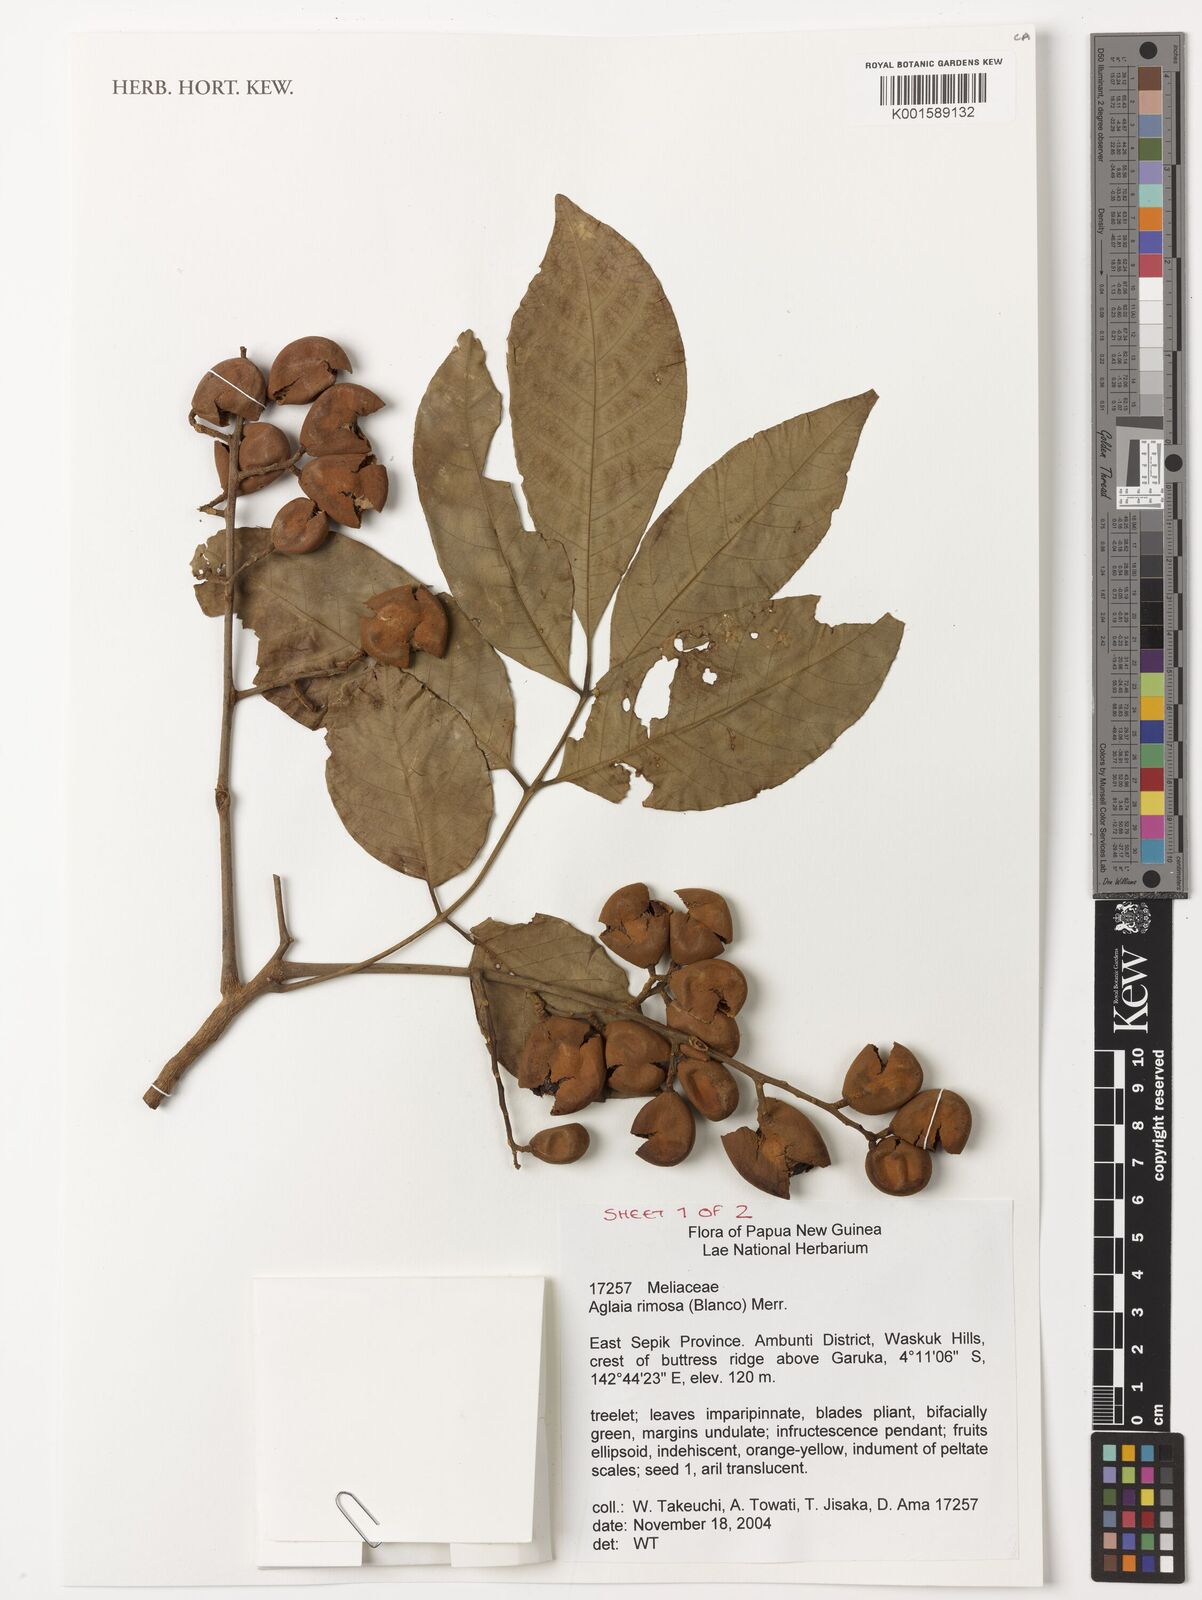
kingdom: Plantae
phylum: Tracheophyta
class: Magnoliopsida
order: Sapindales
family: Meliaceae
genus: Aglaia
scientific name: Aglaia rimosa
